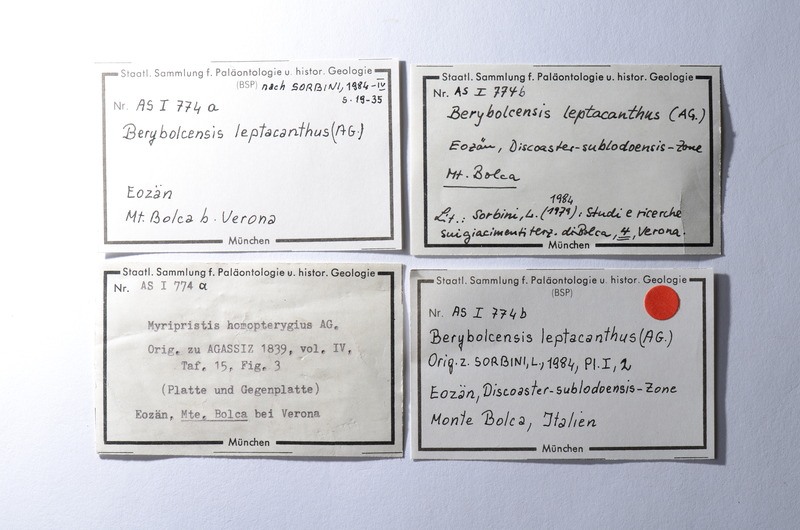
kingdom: Animalia
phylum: Chordata
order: Beryciformes
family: Holocentridae
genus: Berybolcensis
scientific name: Berybolcensis leptacanthus
